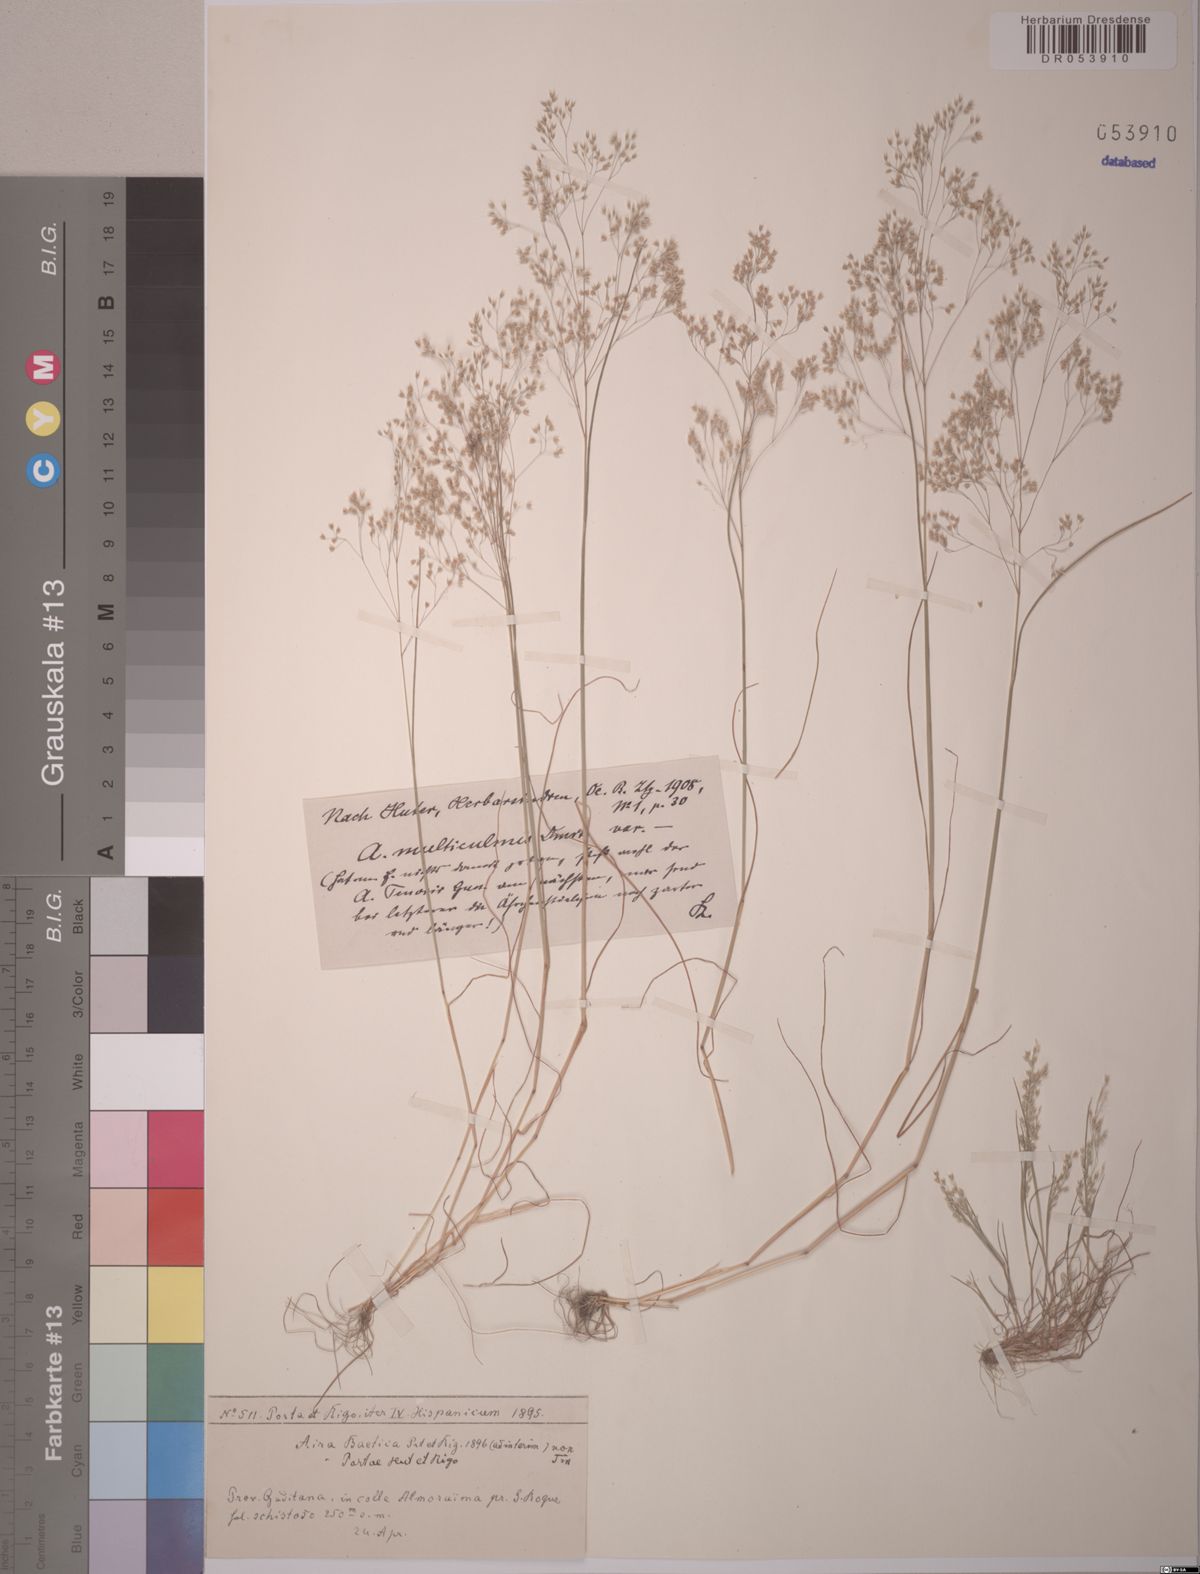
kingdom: Plantae
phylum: Tracheophyta
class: Liliopsida
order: Poales
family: Poaceae
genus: Aira
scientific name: Aira caryophyllea
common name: Silver hairgrass
